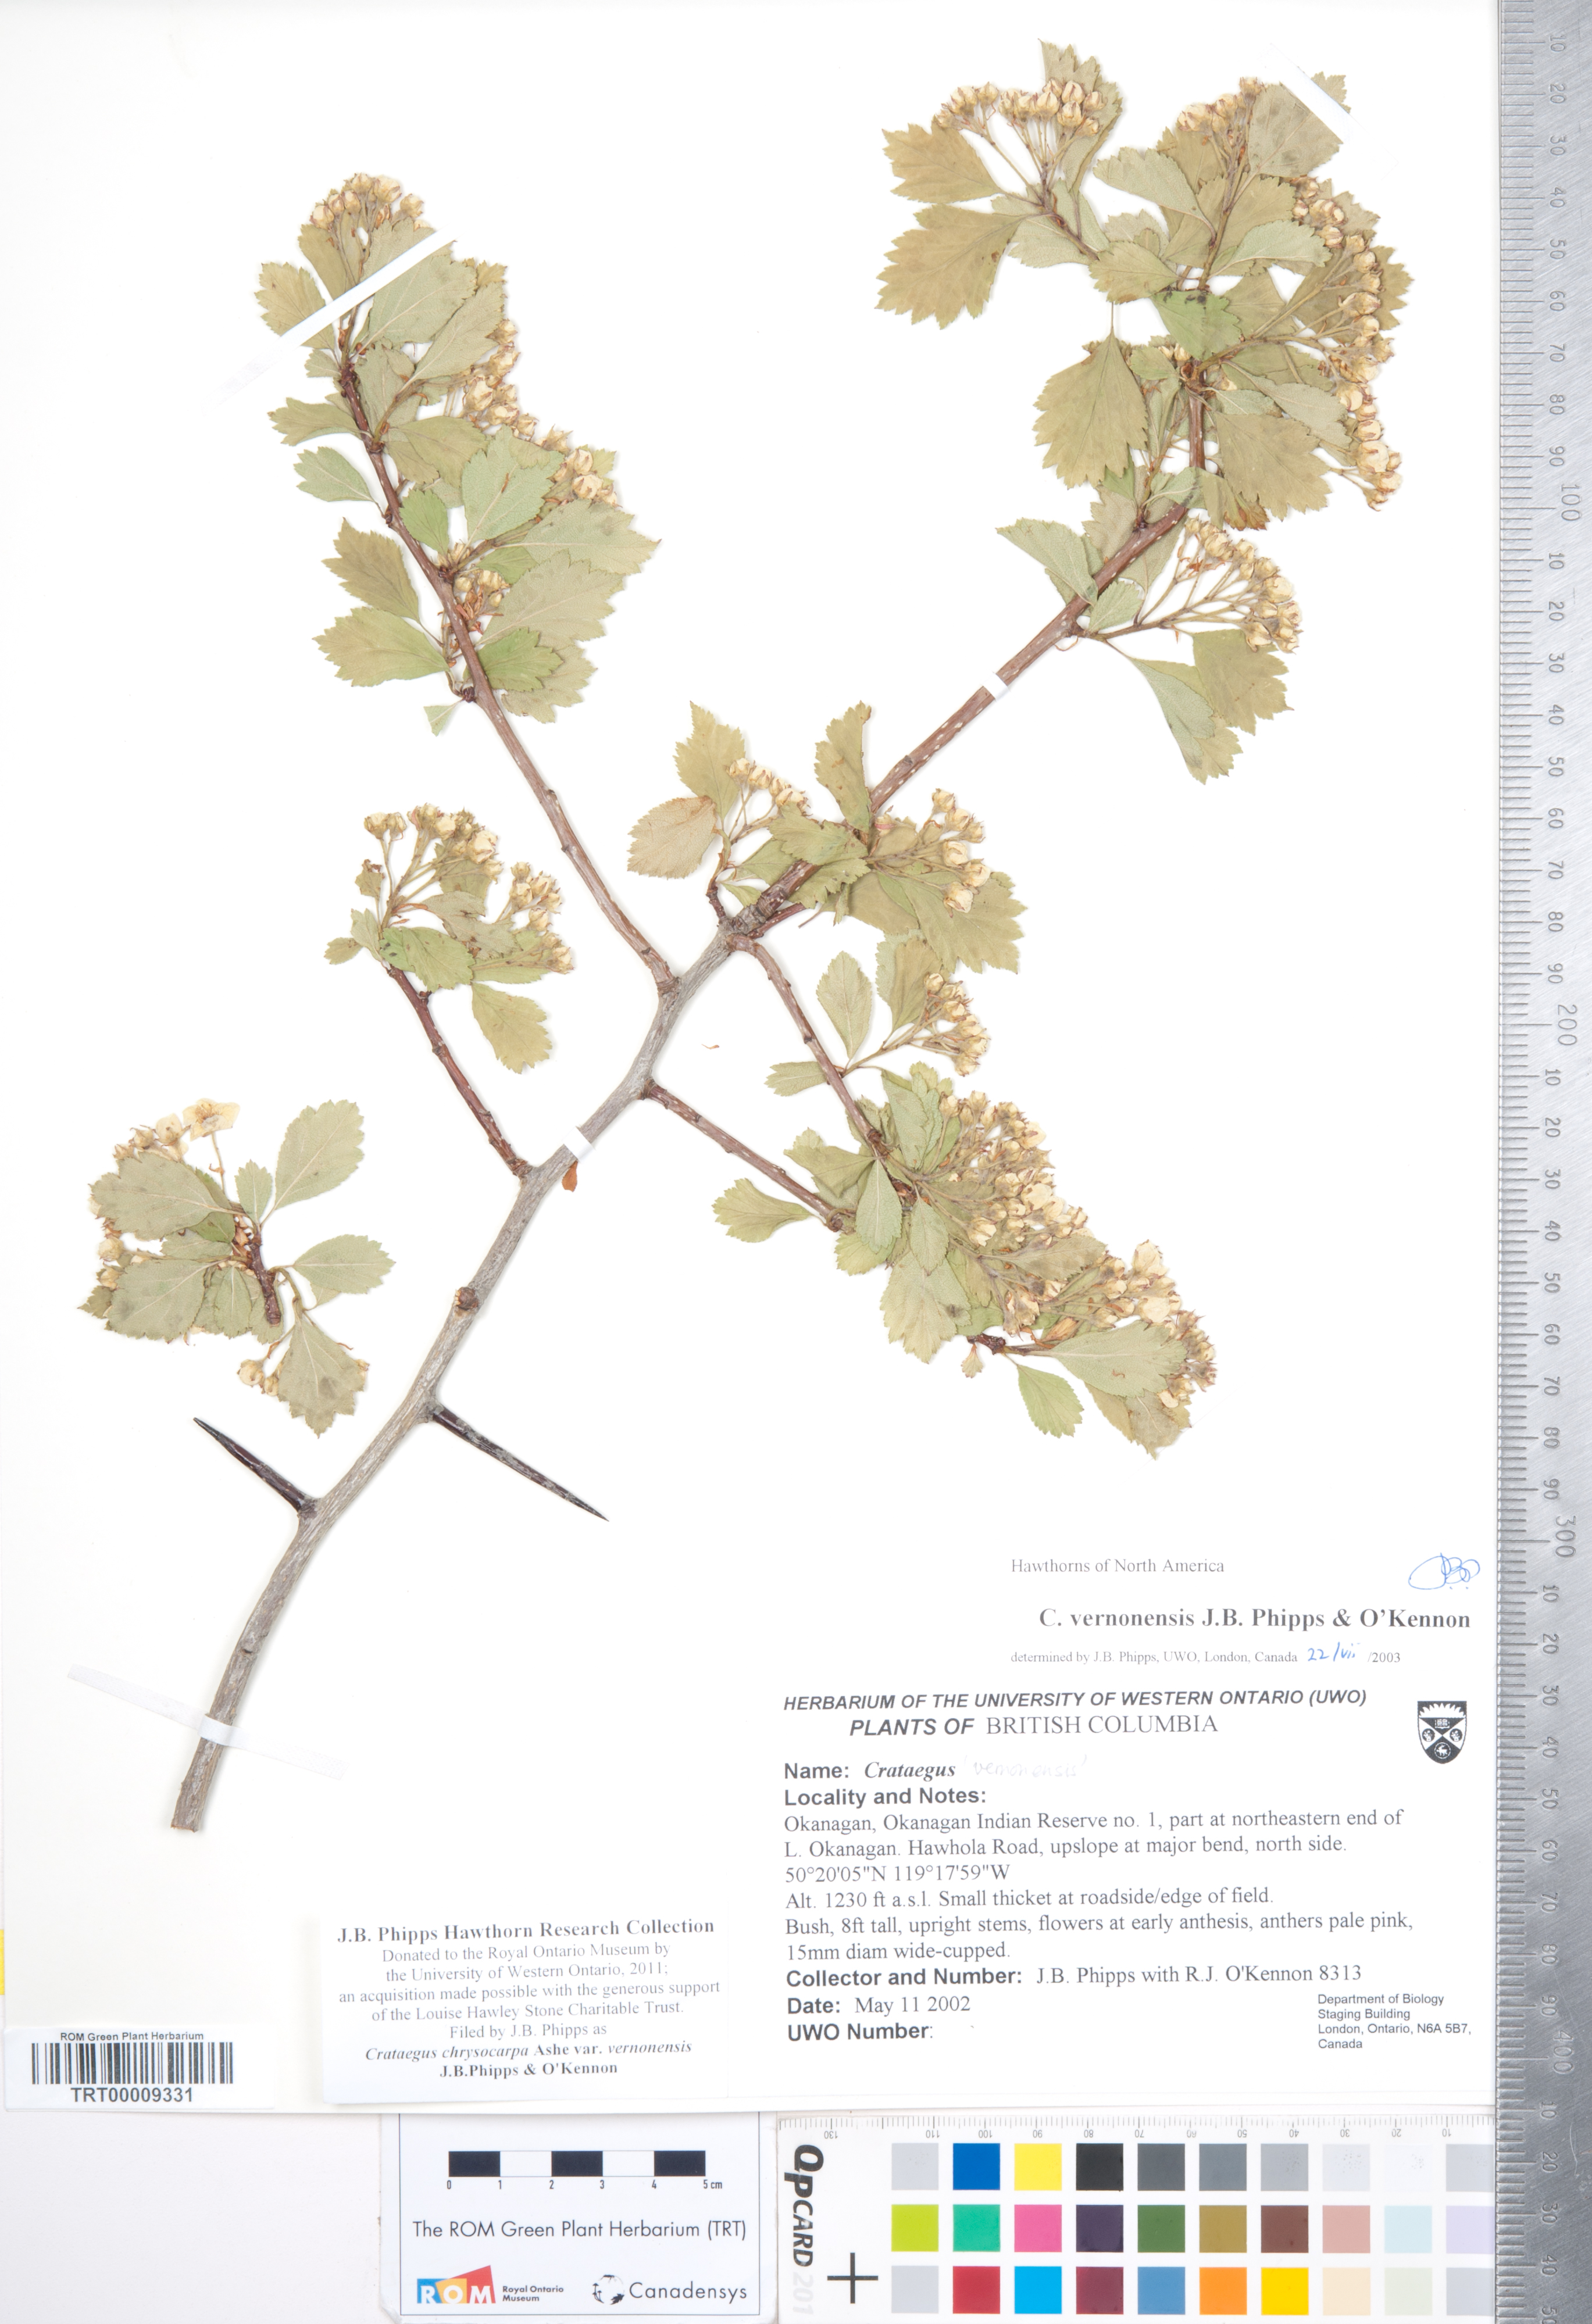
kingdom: Plantae
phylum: Tracheophyta
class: Magnoliopsida
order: Rosales
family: Rosaceae
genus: Crataegus
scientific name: Crataegus chrysocarpa
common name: Fire-berry hawthorn
